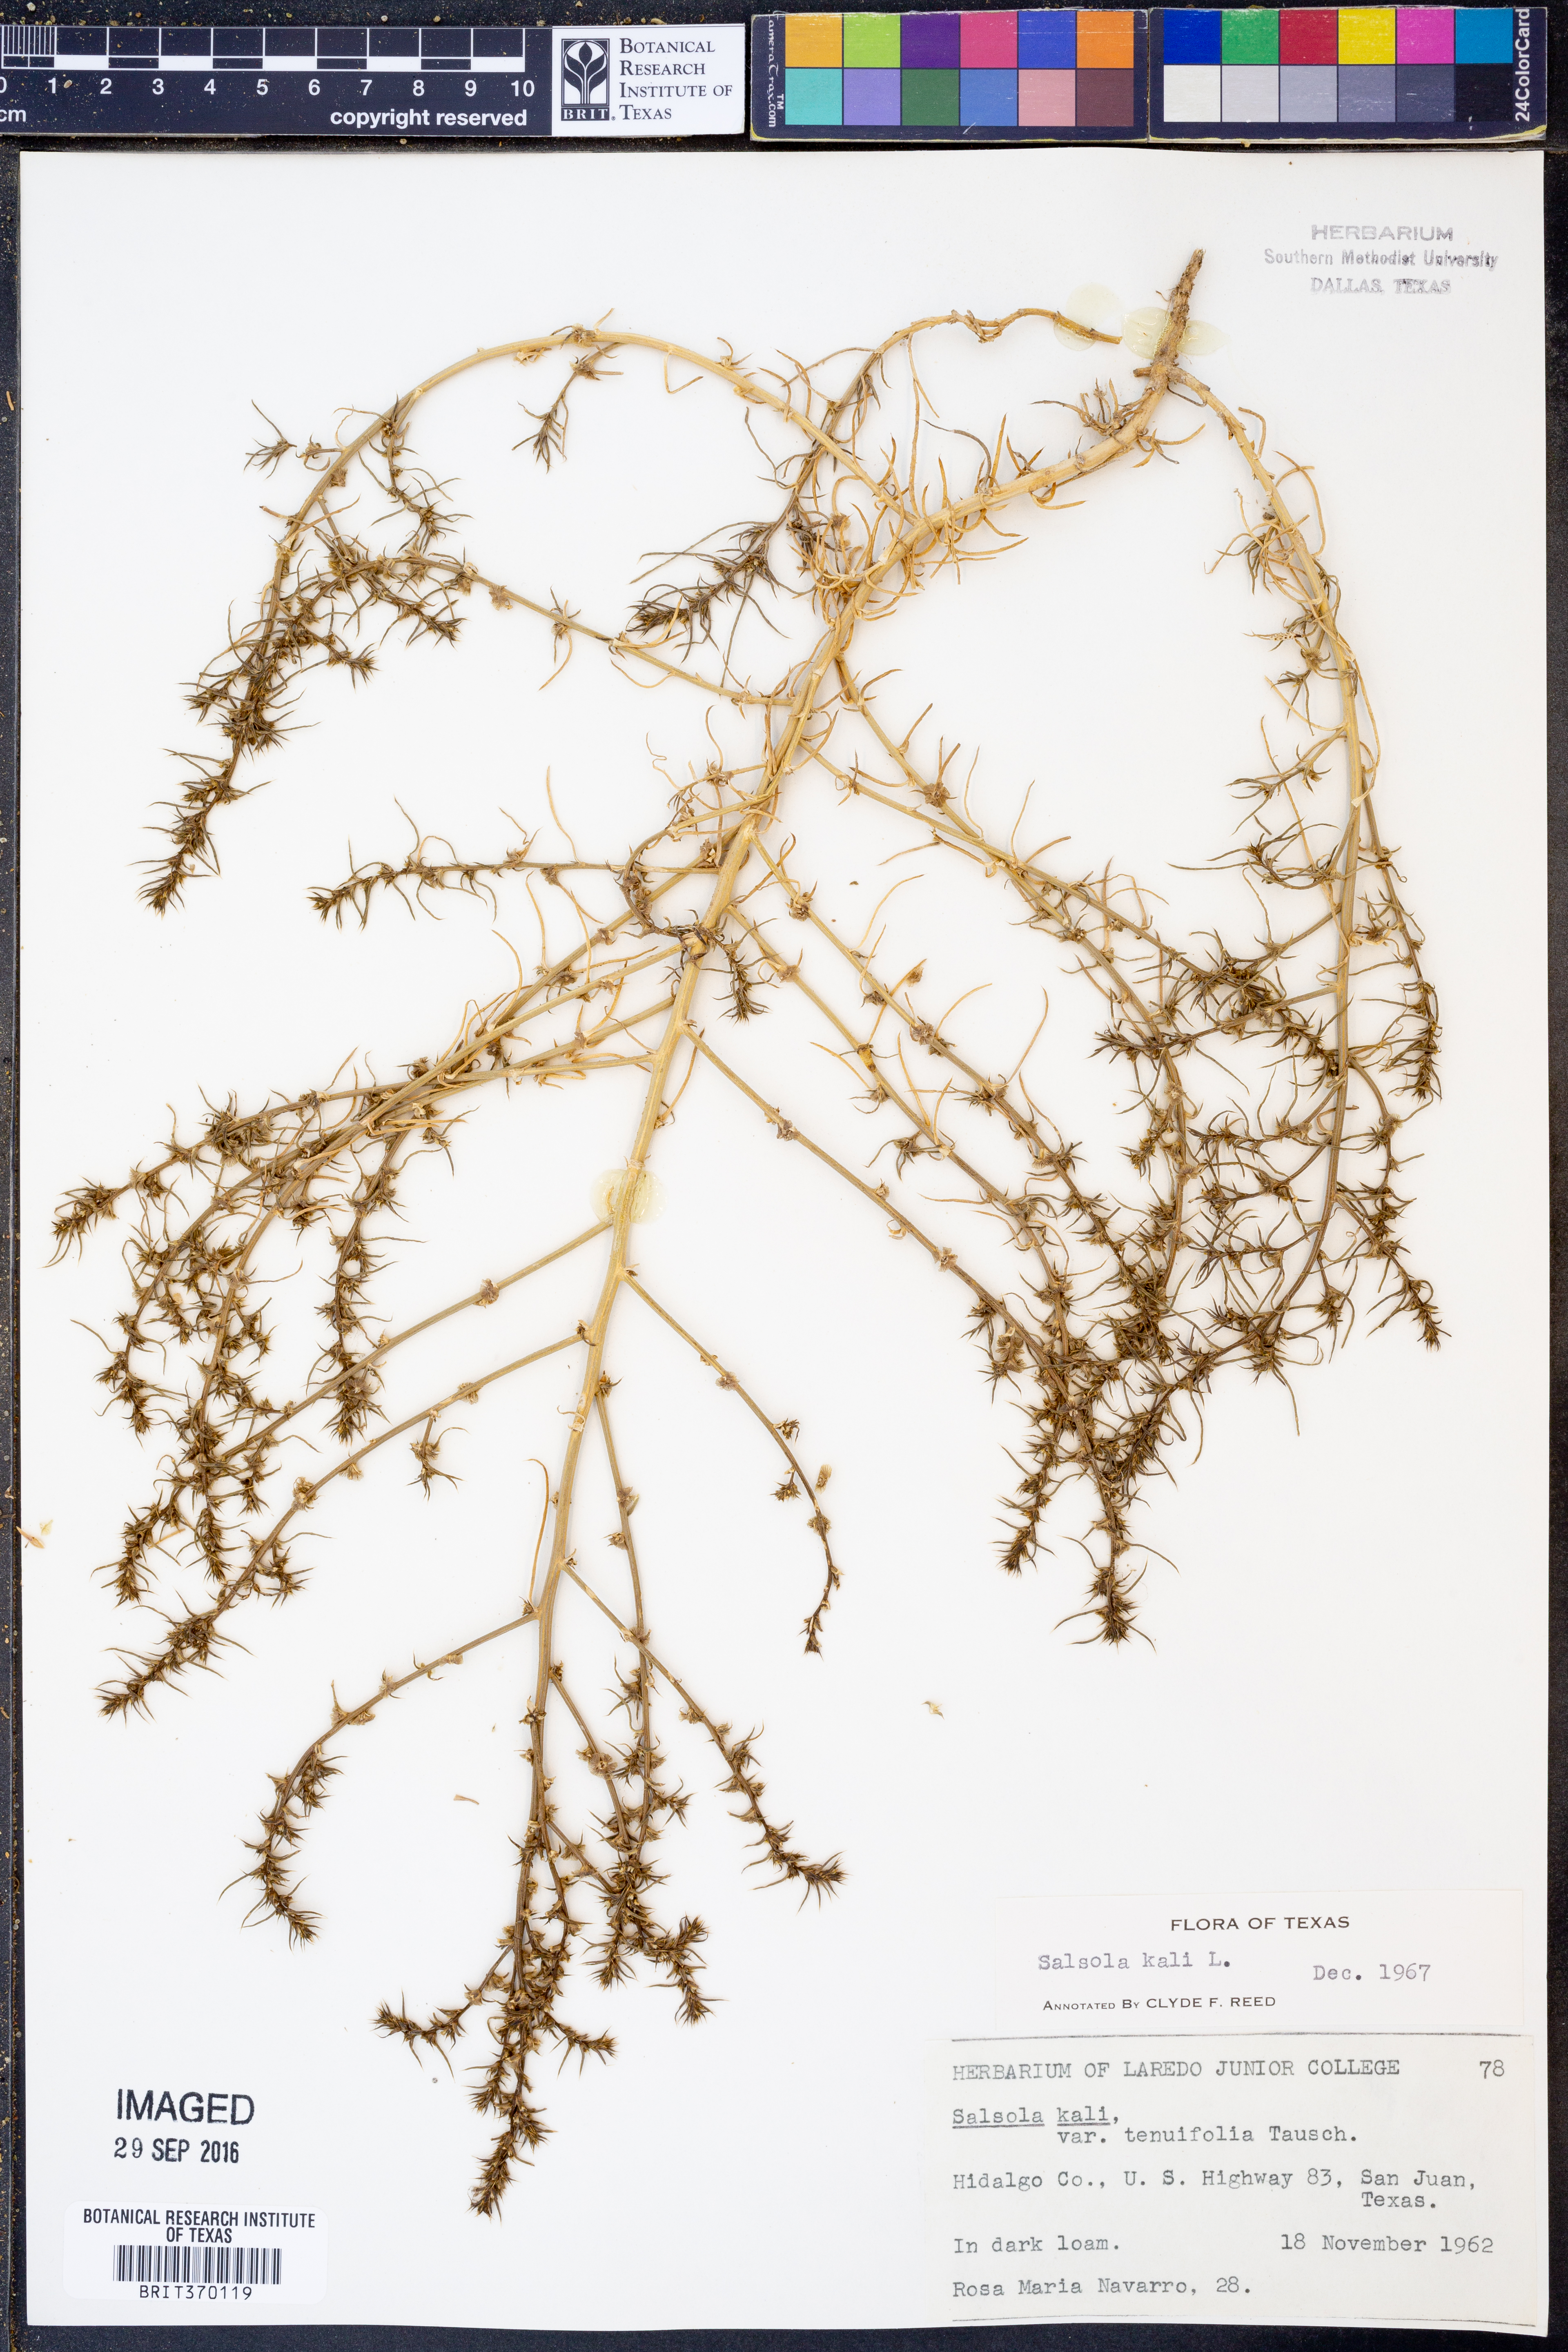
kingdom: Plantae
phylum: Tracheophyta
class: Magnoliopsida
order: Caryophyllales
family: Amaranthaceae
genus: Salsola
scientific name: Salsola tragus
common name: Prickly russian thistle
